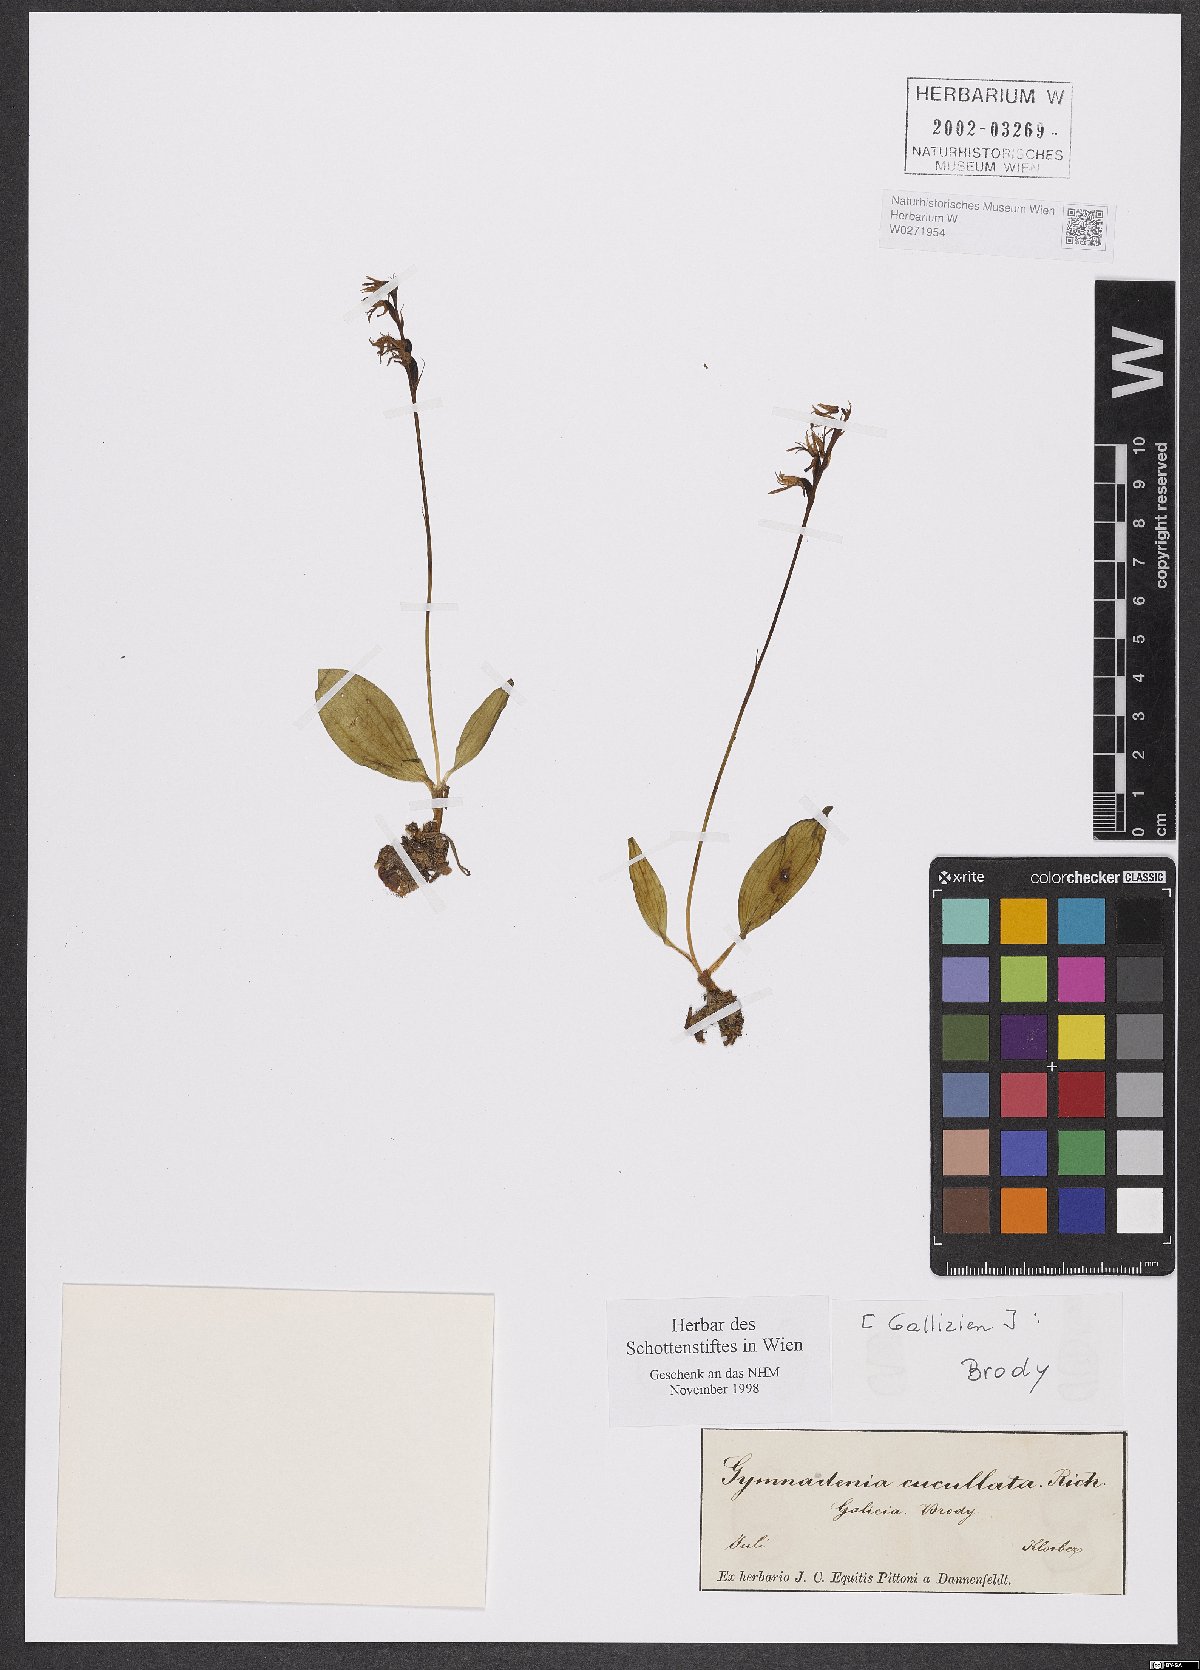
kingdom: Plantae
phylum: Tracheophyta
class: Liliopsida
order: Asparagales
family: Orchidaceae
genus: Hemipilia
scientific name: Hemipilia cucullata
